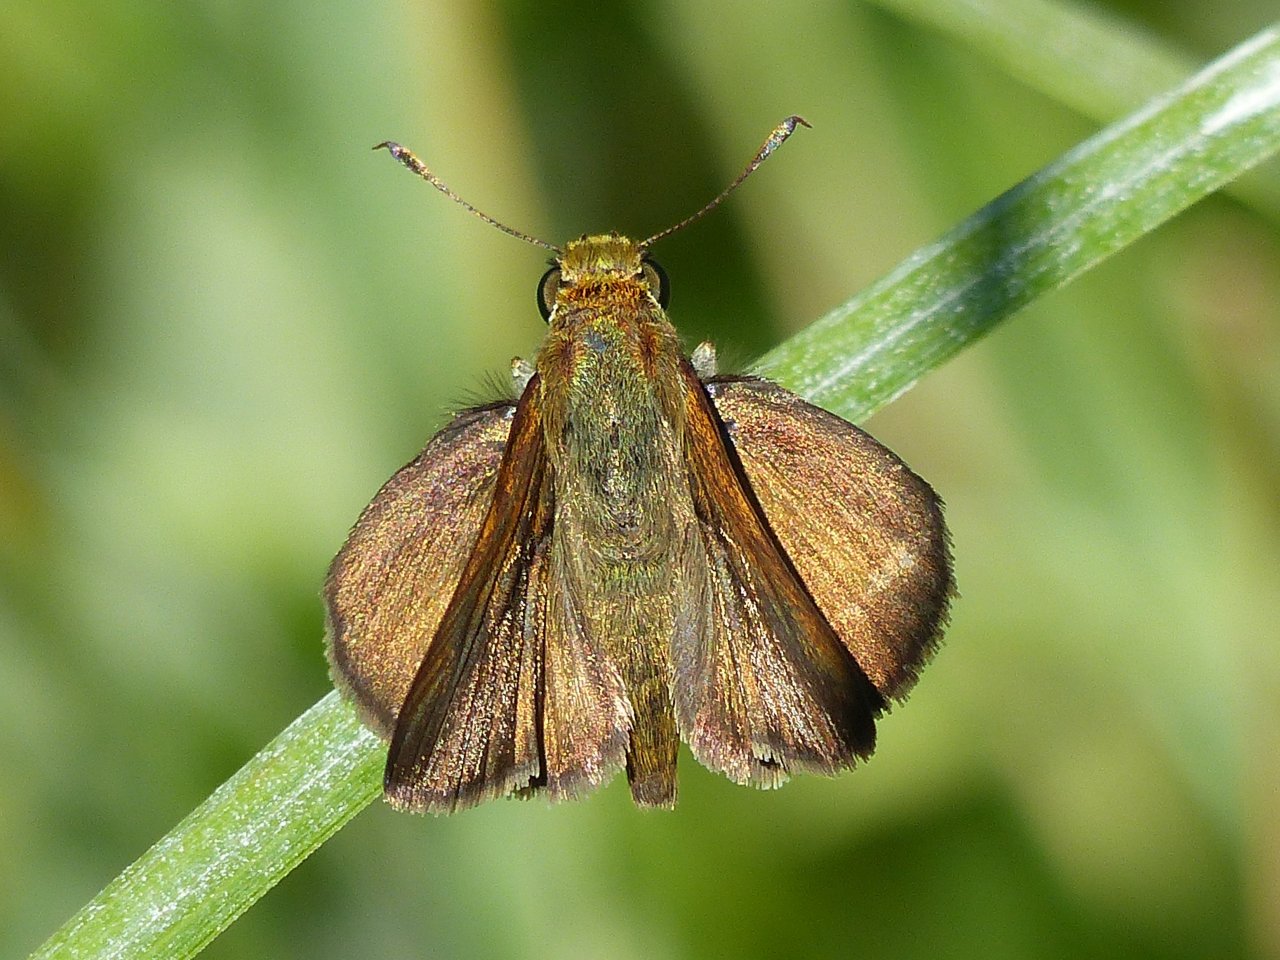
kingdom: Animalia
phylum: Arthropoda
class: Insecta
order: Lepidoptera
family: Hesperiidae
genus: Euphyes
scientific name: Euphyes vestris
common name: Dun Skipper
